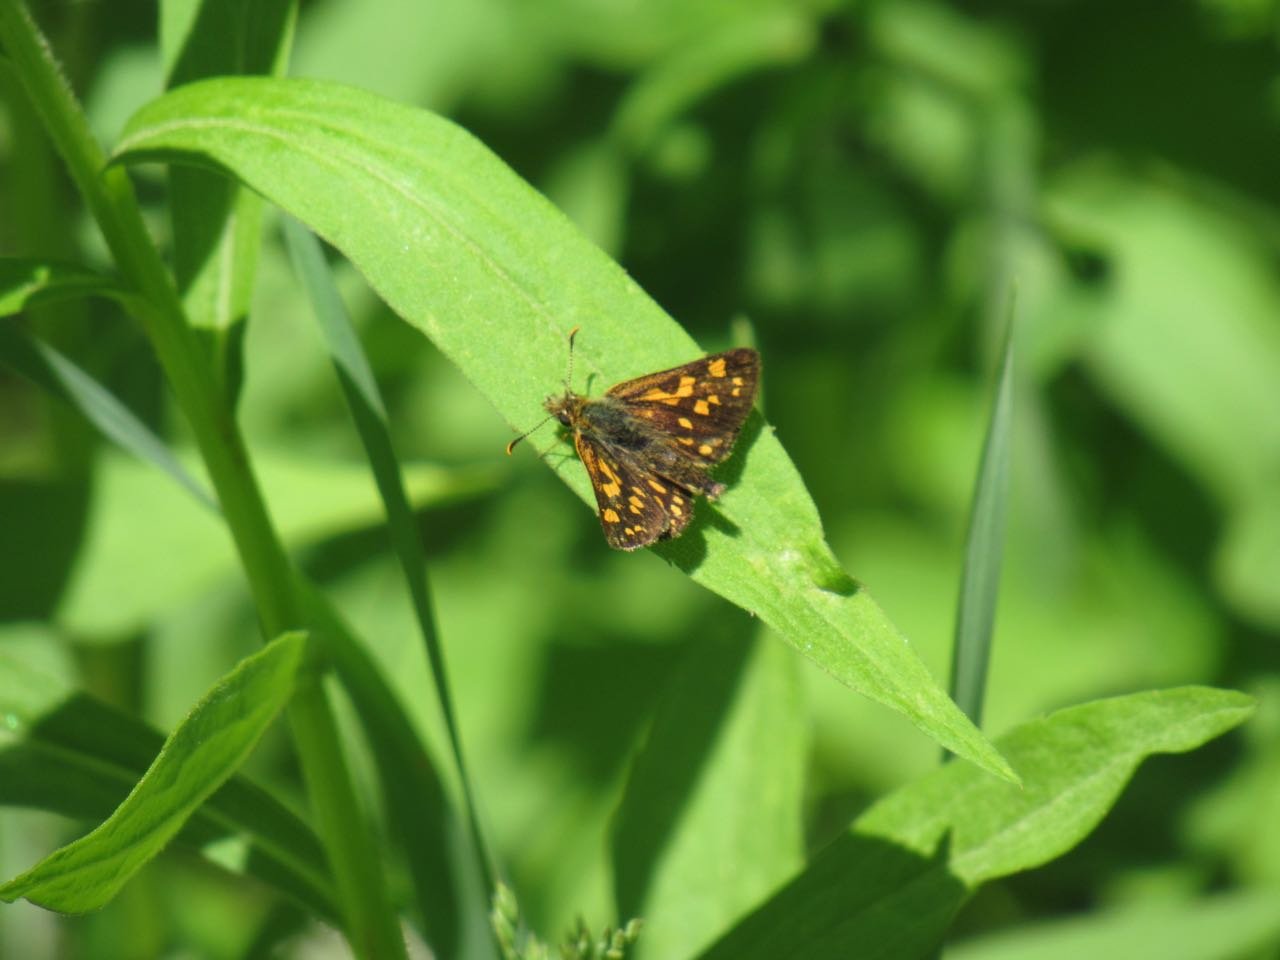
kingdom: Animalia
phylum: Arthropoda
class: Insecta
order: Lepidoptera
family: Hesperiidae
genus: Carterocephalus
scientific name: Carterocephalus palaemon
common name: Chequered Skipper
